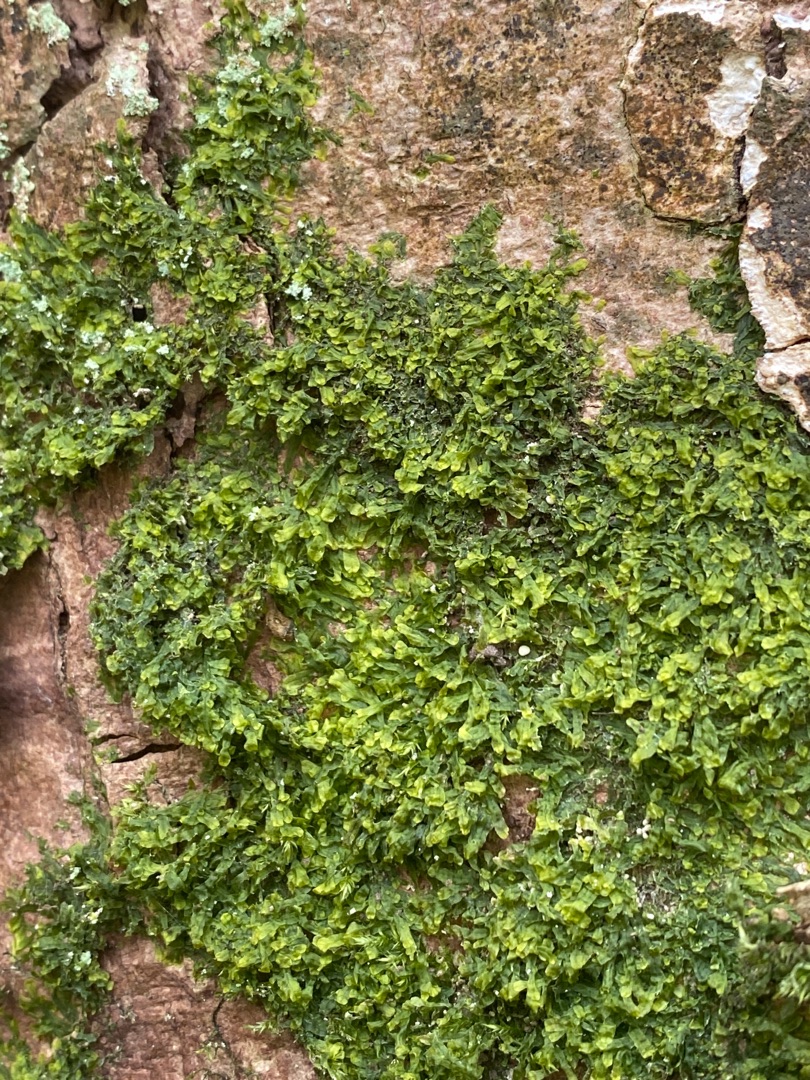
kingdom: Plantae
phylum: Marchantiophyta
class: Jungermanniopsida
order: Metzgeriales
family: Metzgeriaceae
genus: Metzgeria
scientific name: Metzgeria furcata
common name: Almindelig gaffelløv
